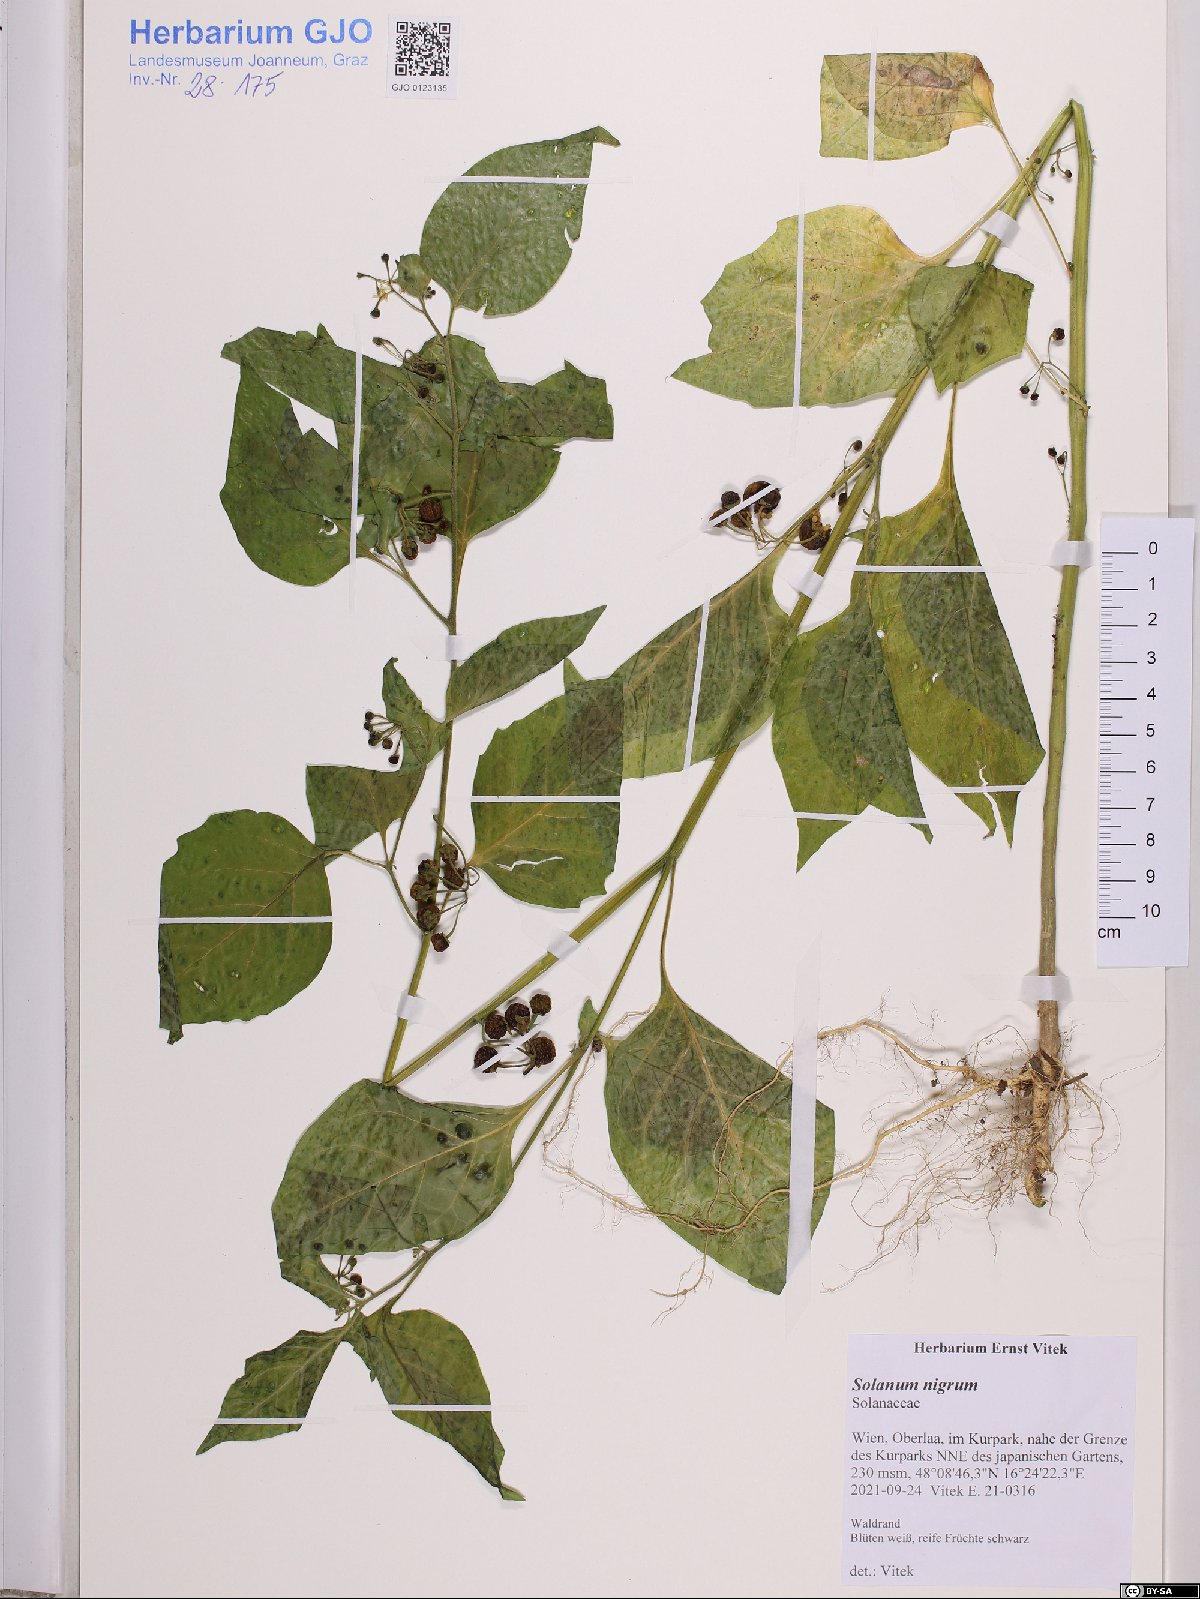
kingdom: Plantae
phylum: Tracheophyta
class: Magnoliopsida
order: Solanales
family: Solanaceae
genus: Solanum
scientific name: Solanum nigrum
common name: Black nightshade
